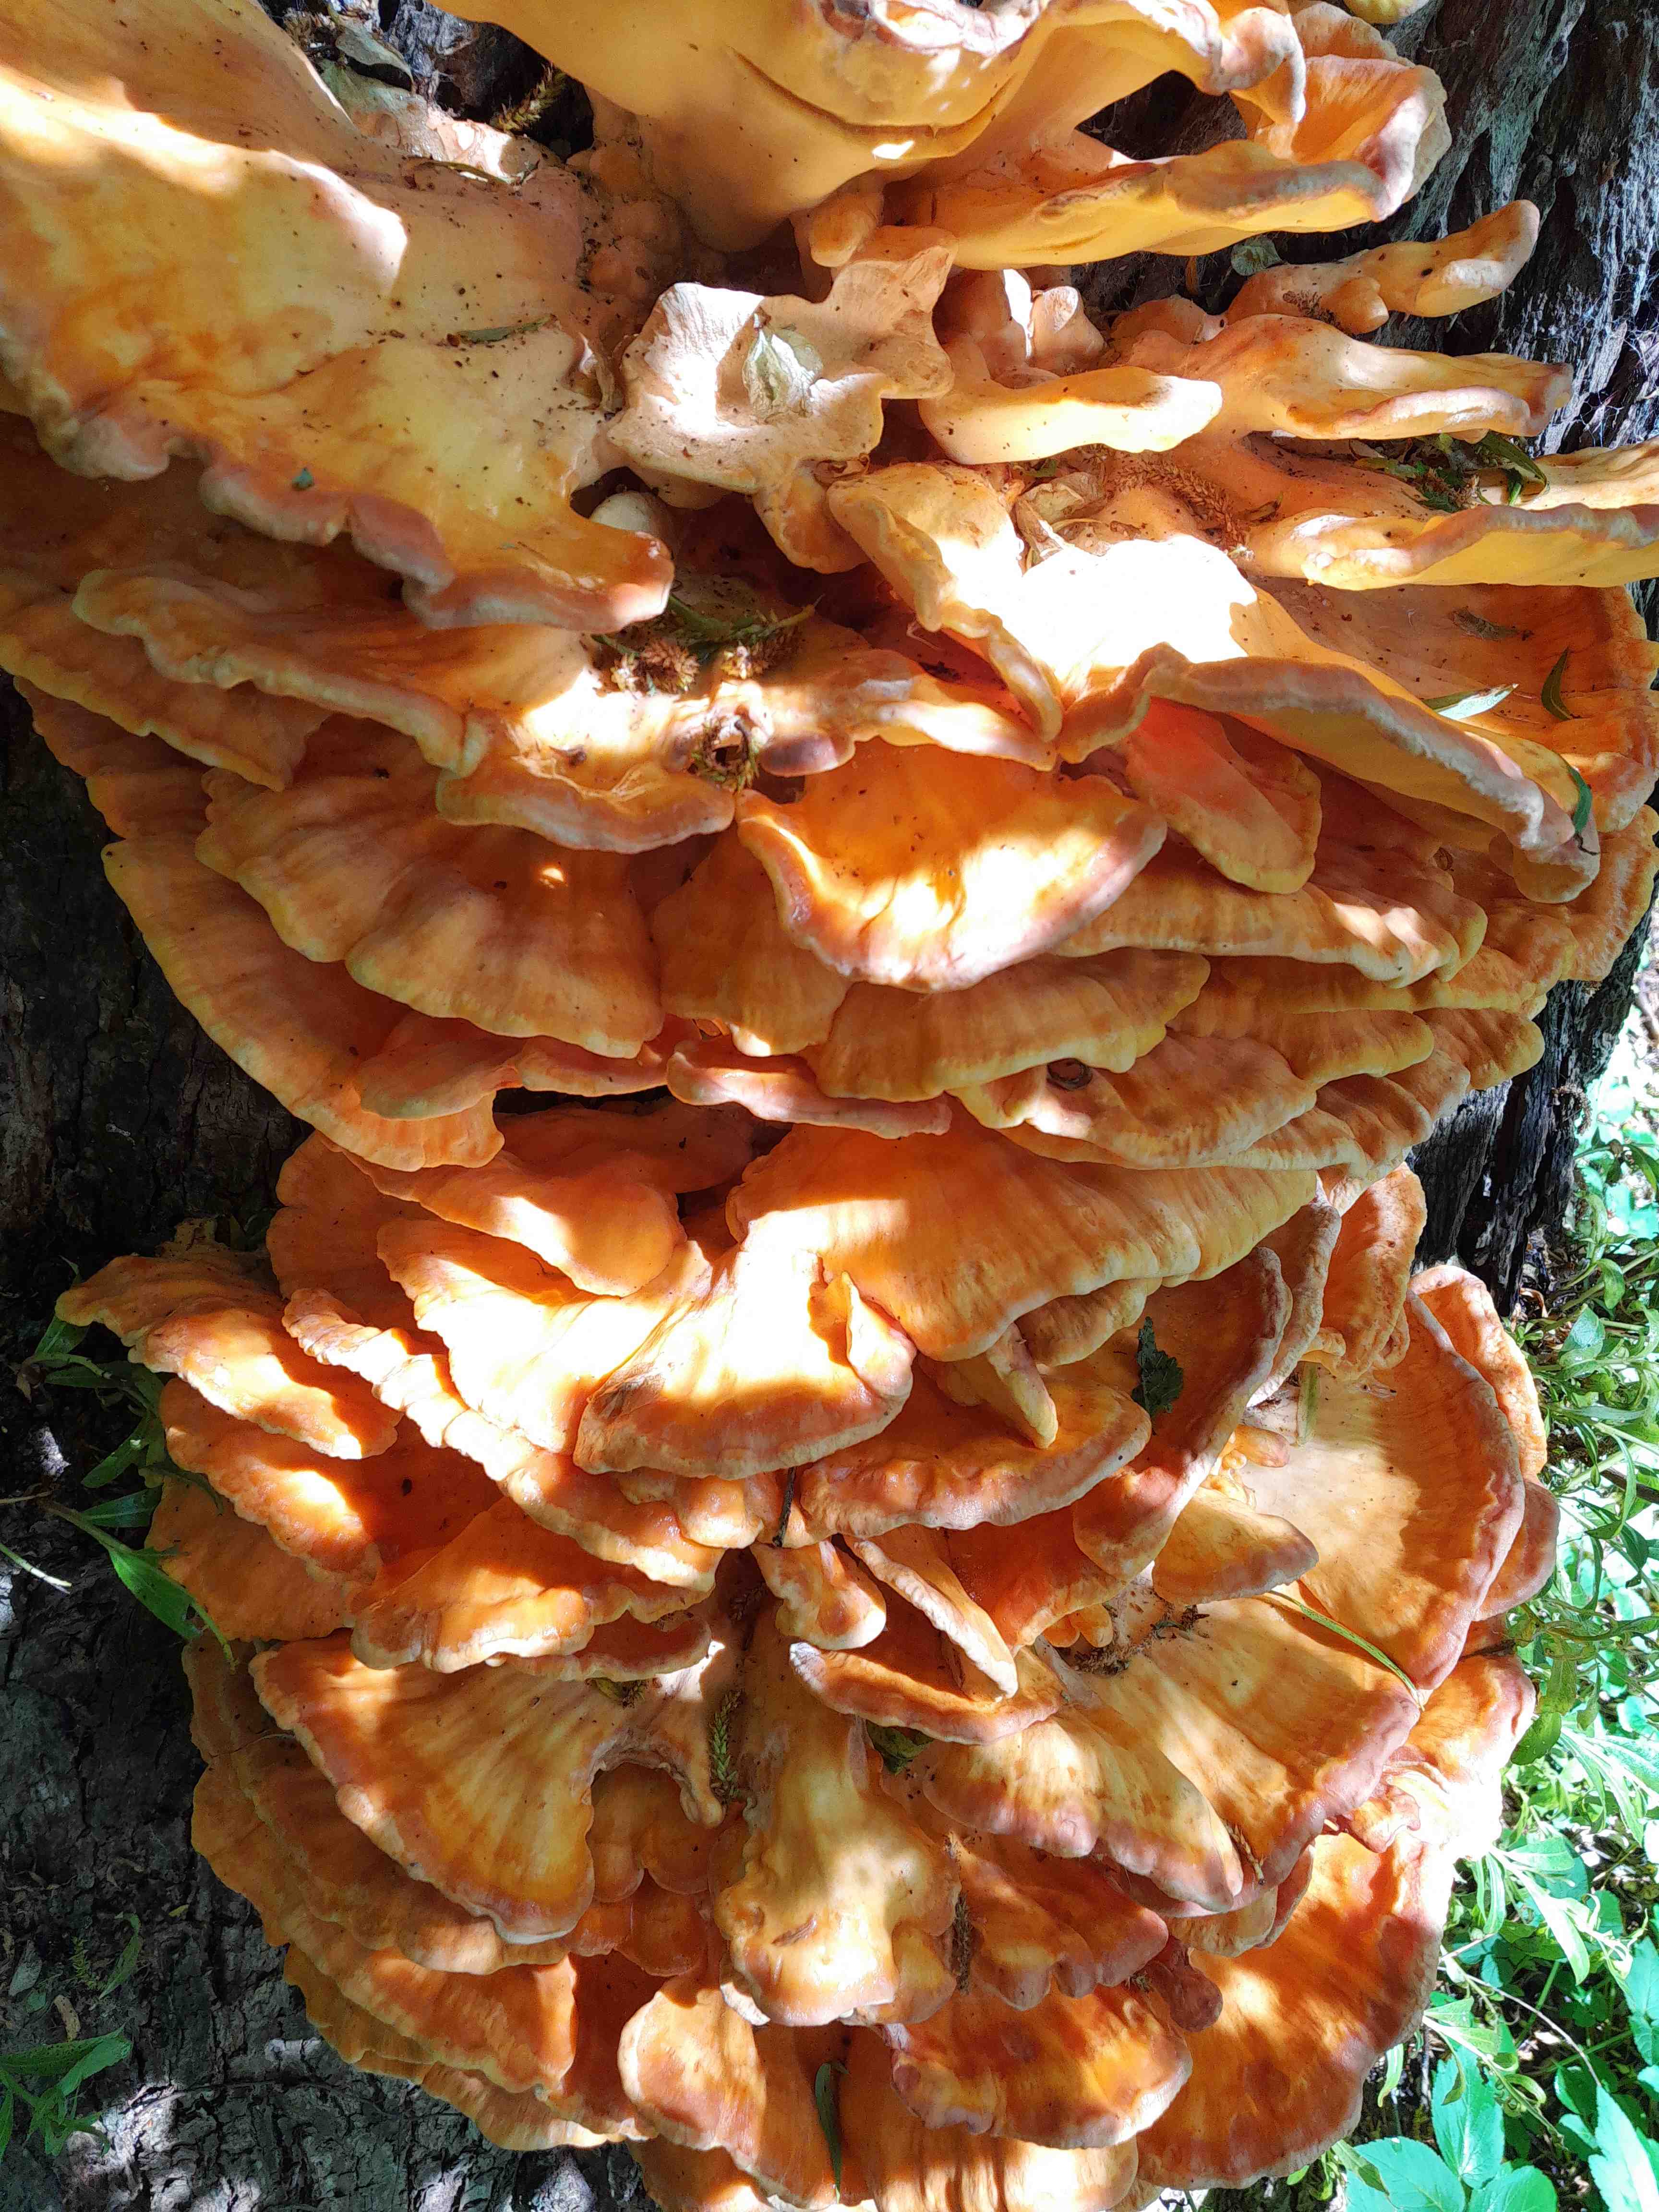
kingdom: Fungi
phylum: Basidiomycota
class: Agaricomycetes
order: Polyporales
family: Laetiporaceae
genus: Laetiporus
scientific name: Laetiporus sulphureus
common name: svovlporesvamp
